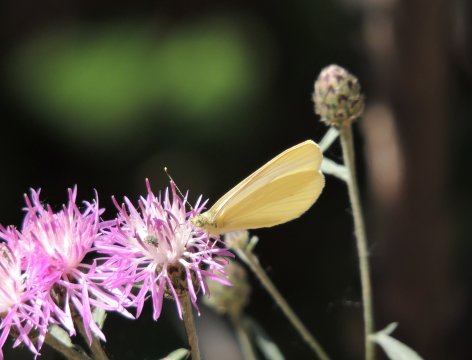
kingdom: Animalia
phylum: Arthropoda
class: Insecta
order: Lepidoptera
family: Pieridae
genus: Pieris
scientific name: Pieris marginalis
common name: Margined White
